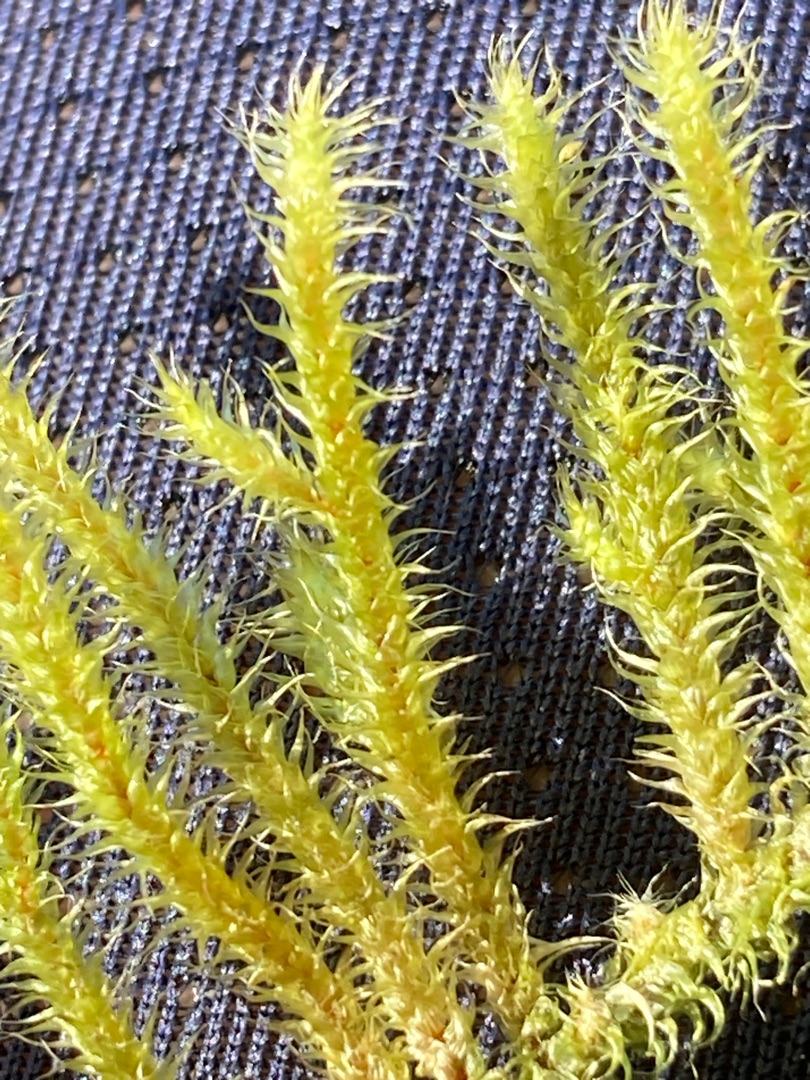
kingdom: Plantae
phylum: Bryophyta
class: Bryopsida
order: Hypnales
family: Hylocomiaceae
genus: Rhytidiadelphus
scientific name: Rhytidiadelphus loreus
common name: Ulvefod-kransemos
